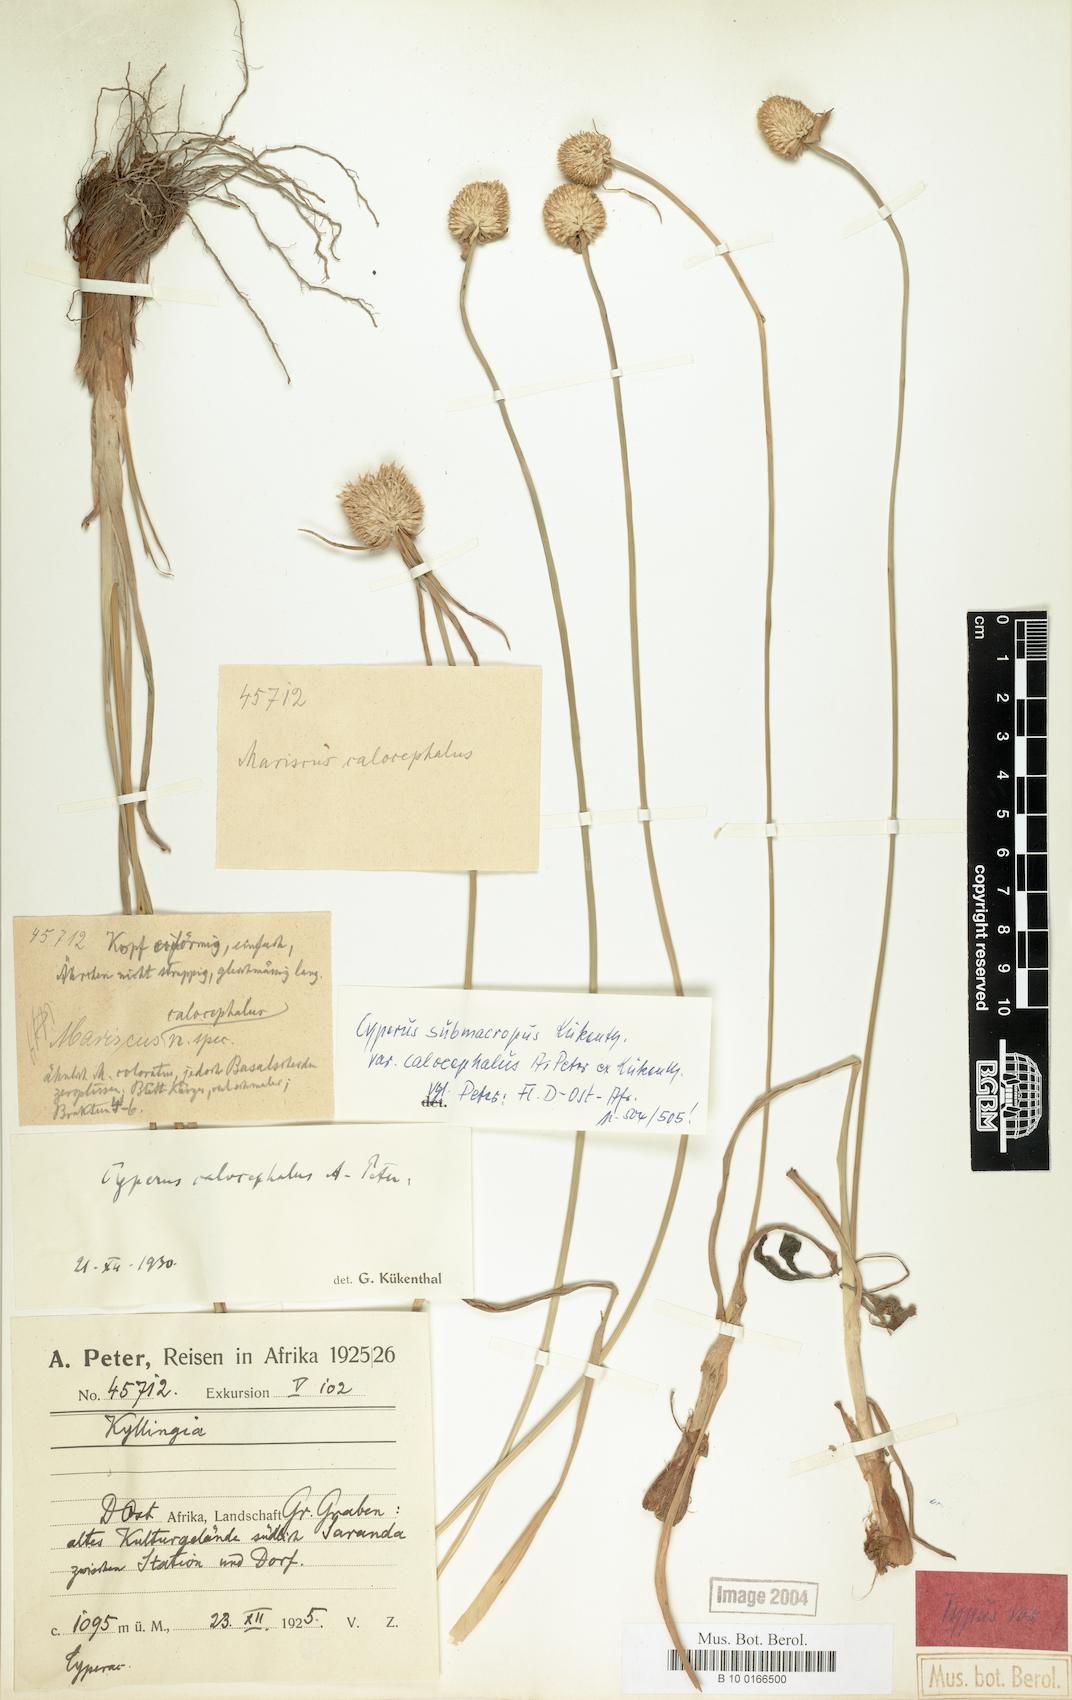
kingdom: Plantae
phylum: Tracheophyta
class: Liliopsida
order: Poales
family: Cyperaceae
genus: Cyperus
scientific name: Cyperus mollipes
